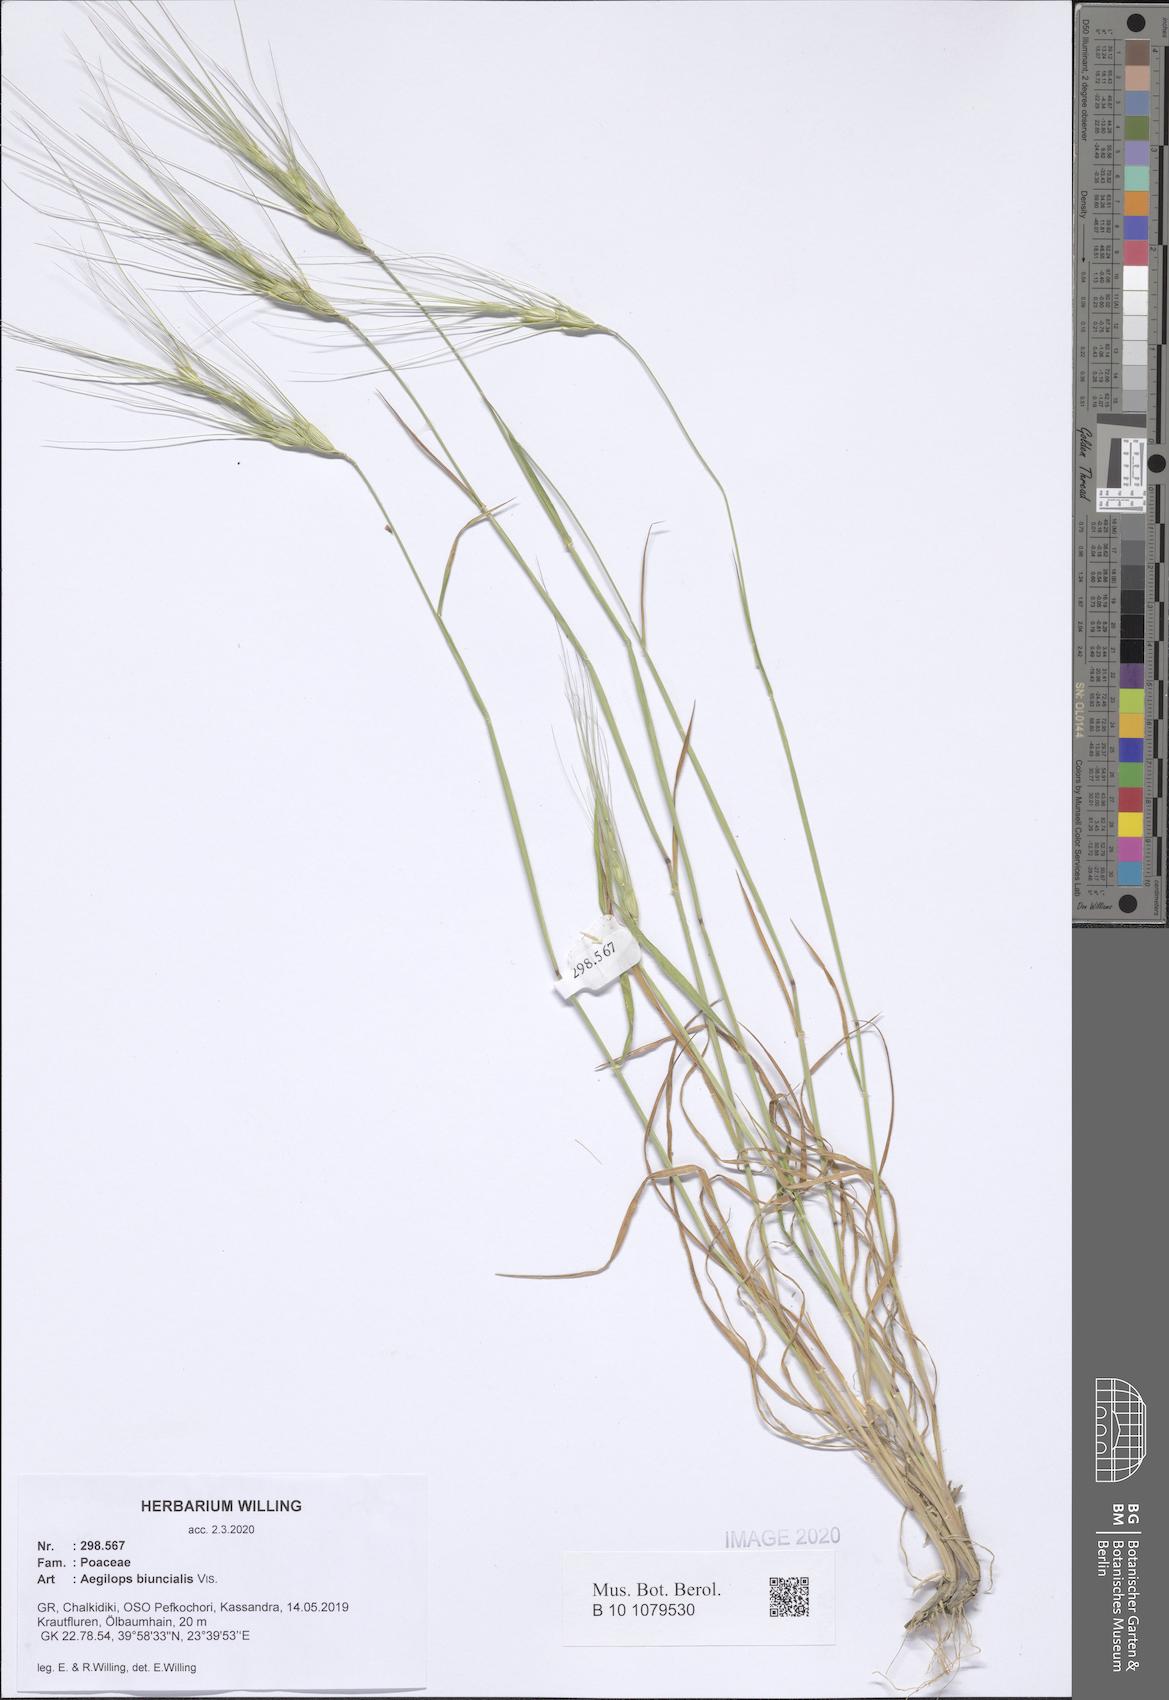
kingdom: Plantae
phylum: Tracheophyta
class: Liliopsida
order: Poales
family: Poaceae
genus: Aegilops
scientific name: Aegilops biuncialis
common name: Mediterranean aegilops
